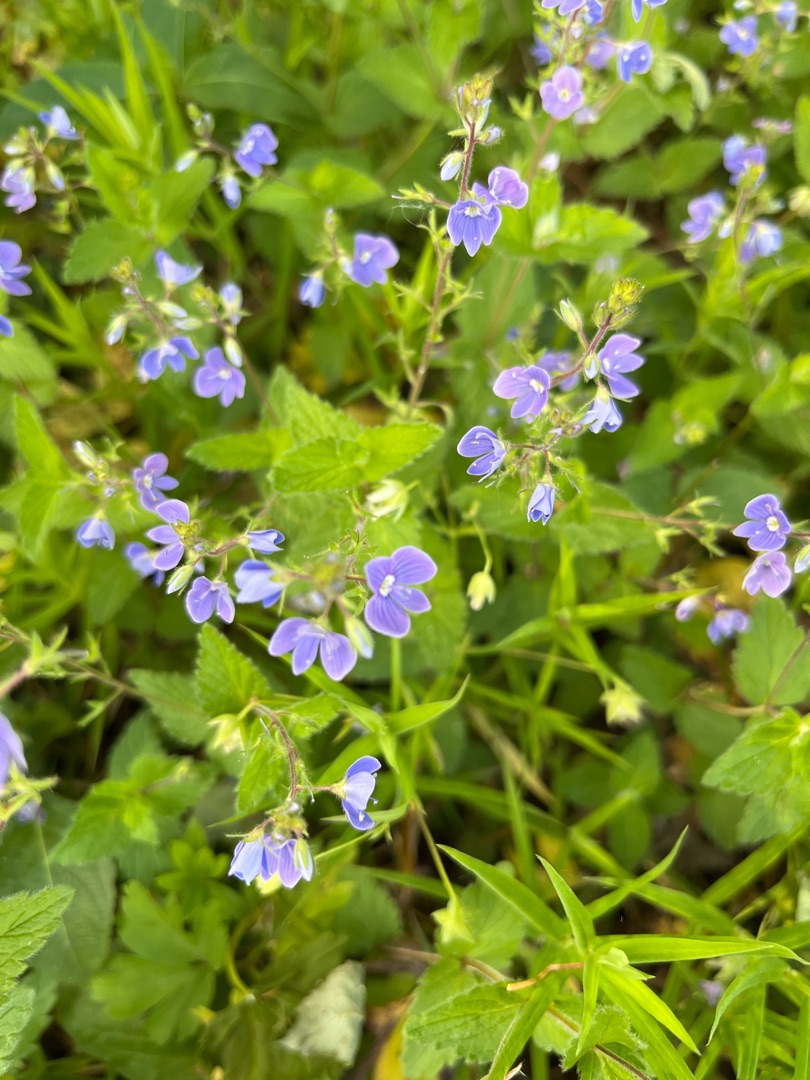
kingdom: Plantae
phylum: Tracheophyta
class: Magnoliopsida
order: Lamiales
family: Plantaginaceae
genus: Veronica
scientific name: Veronica chamaedrys
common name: Tveskægget ærenpris
